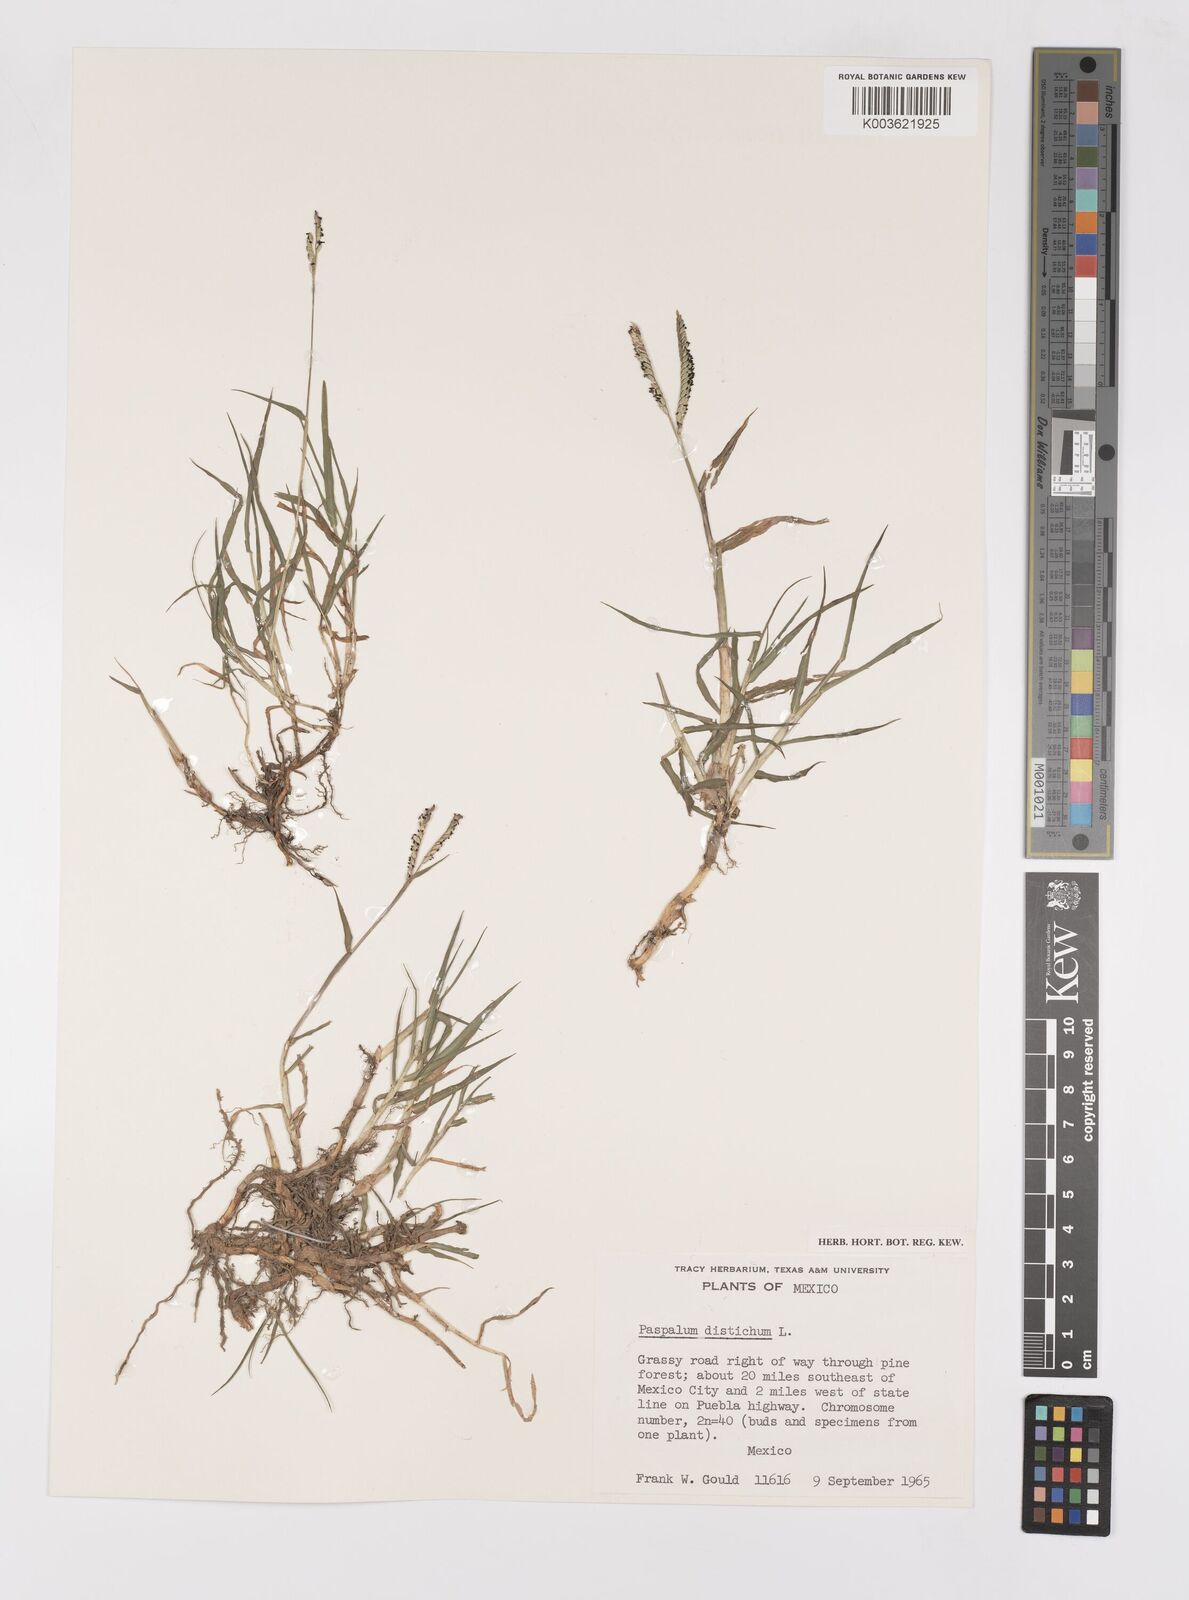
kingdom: Plantae
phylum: Tracheophyta
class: Liliopsida
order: Poales
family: Poaceae
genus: Paspalum
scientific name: Paspalum distichum
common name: Knotgrass
